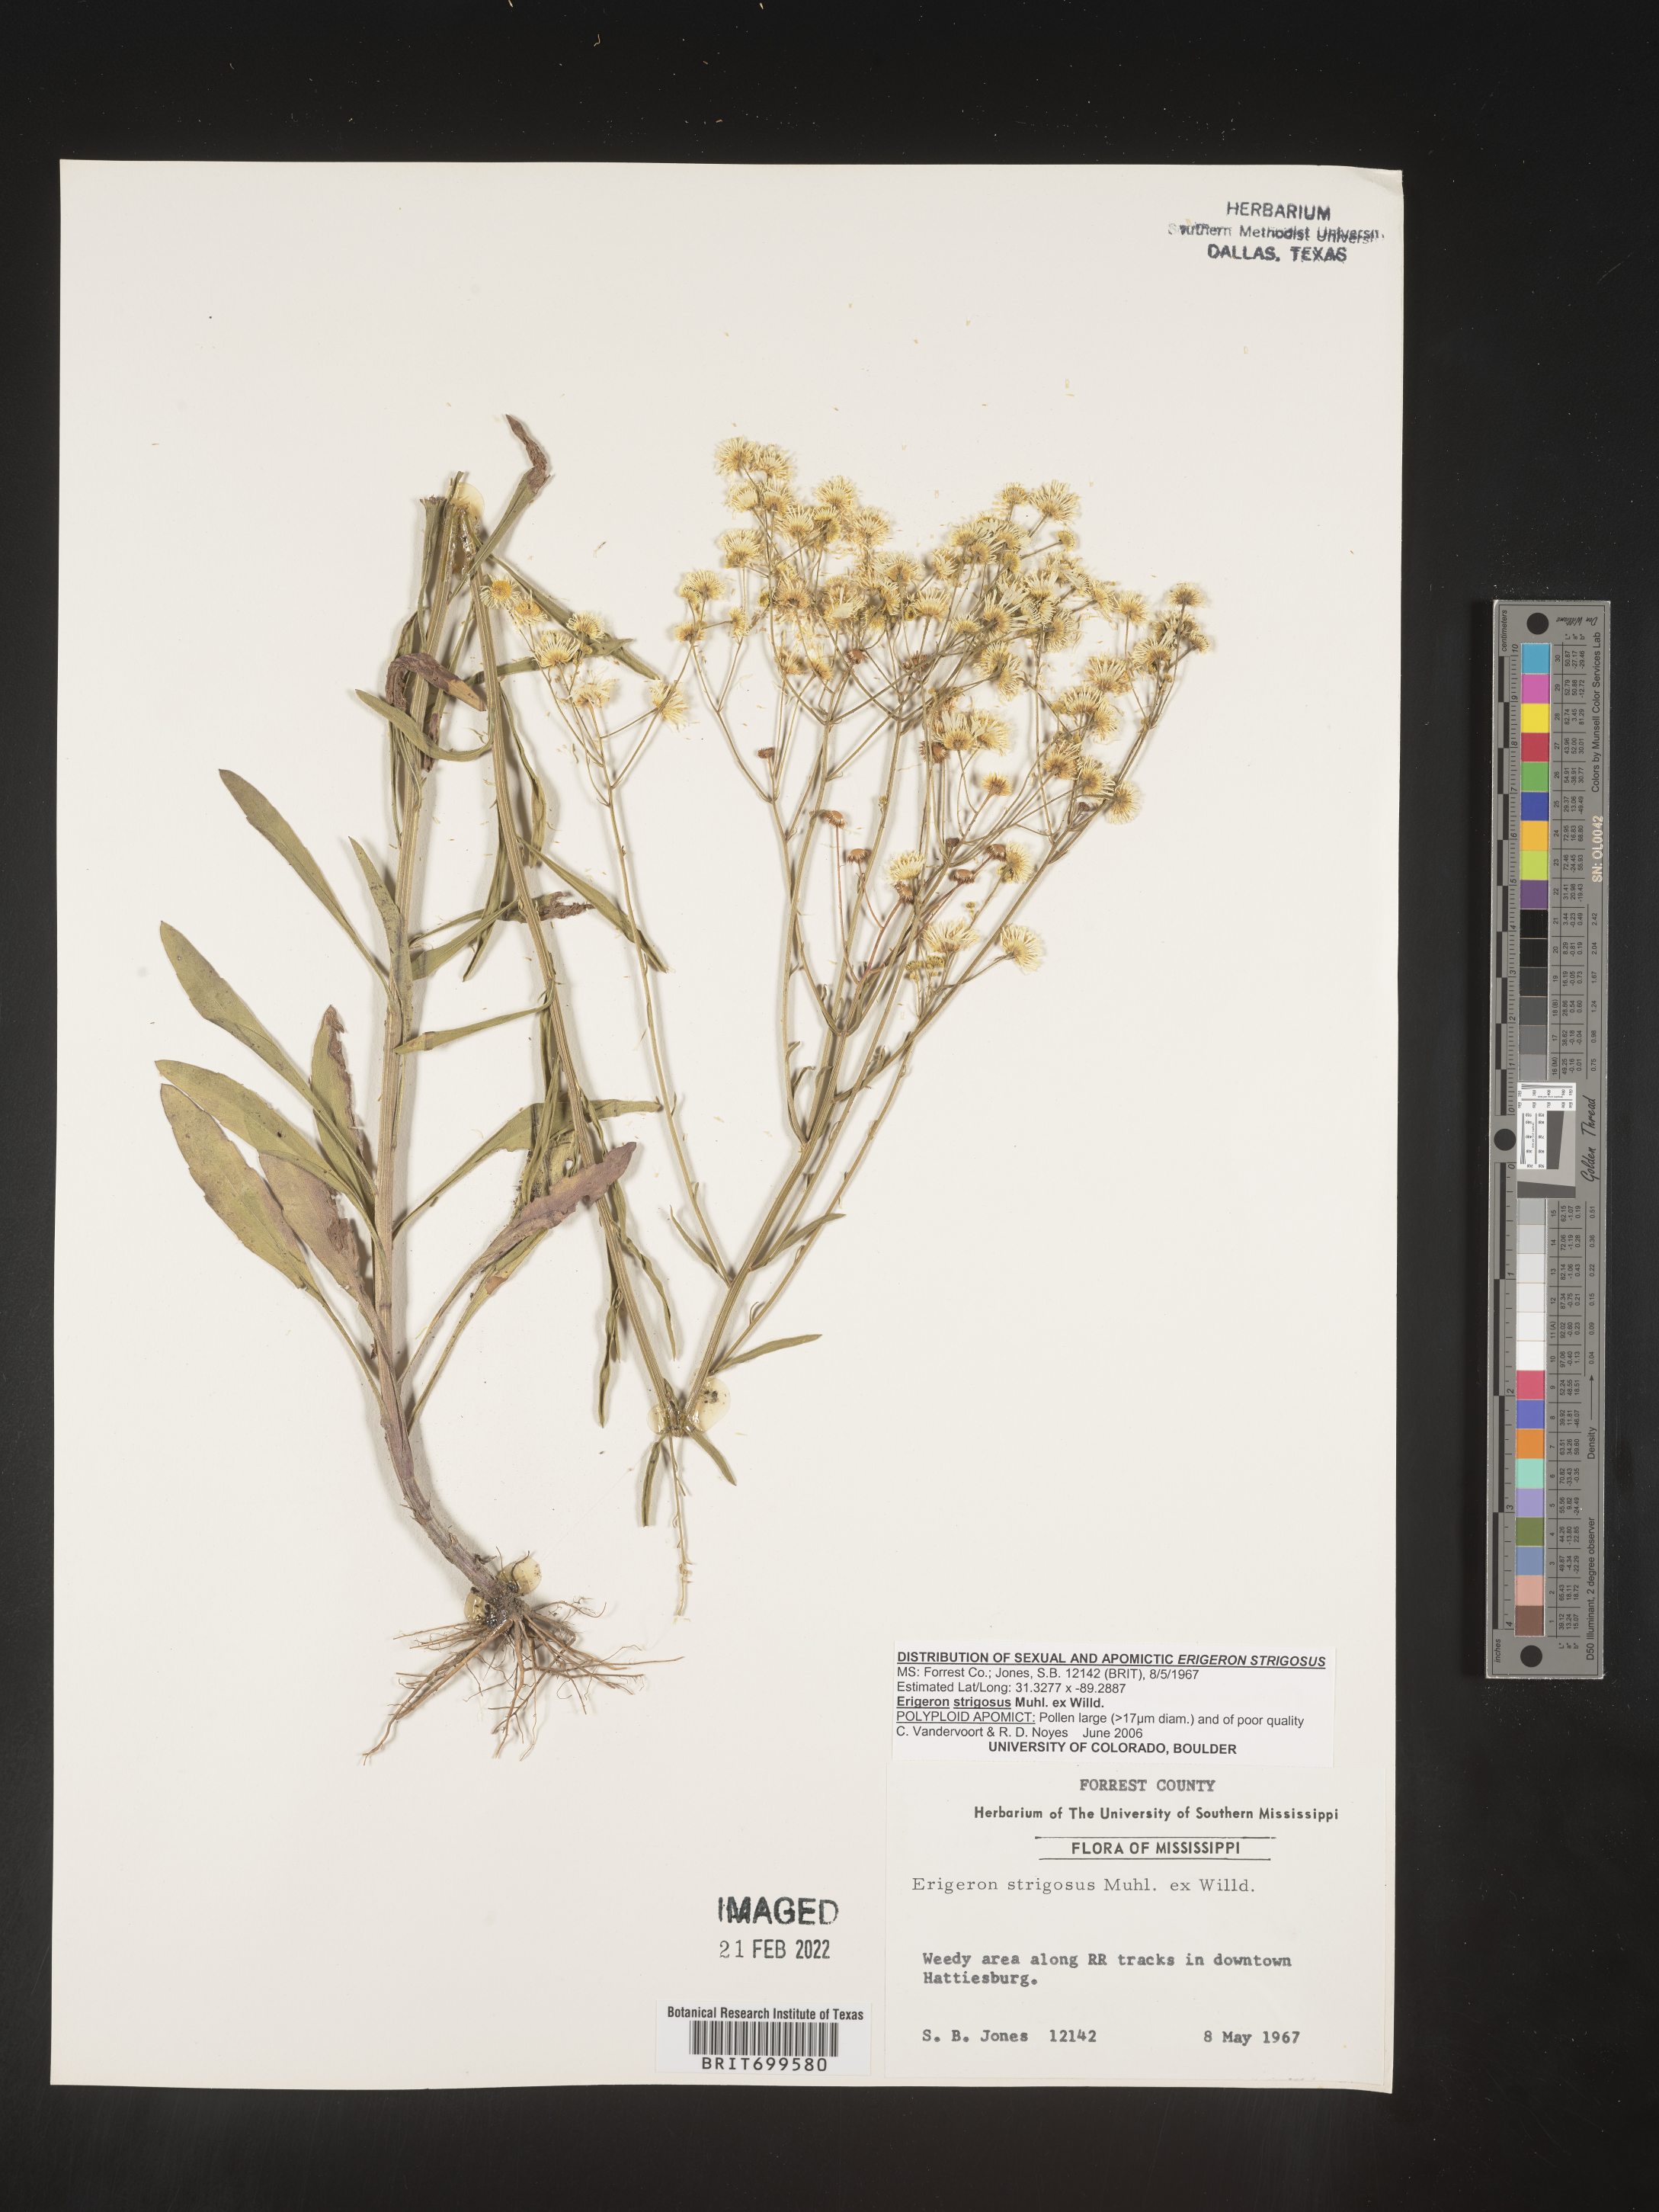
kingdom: Plantae
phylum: Tracheophyta
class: Magnoliopsida
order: Asterales
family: Asteraceae
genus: Erigeron
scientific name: Erigeron strigosus
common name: Common eastern fleabane
